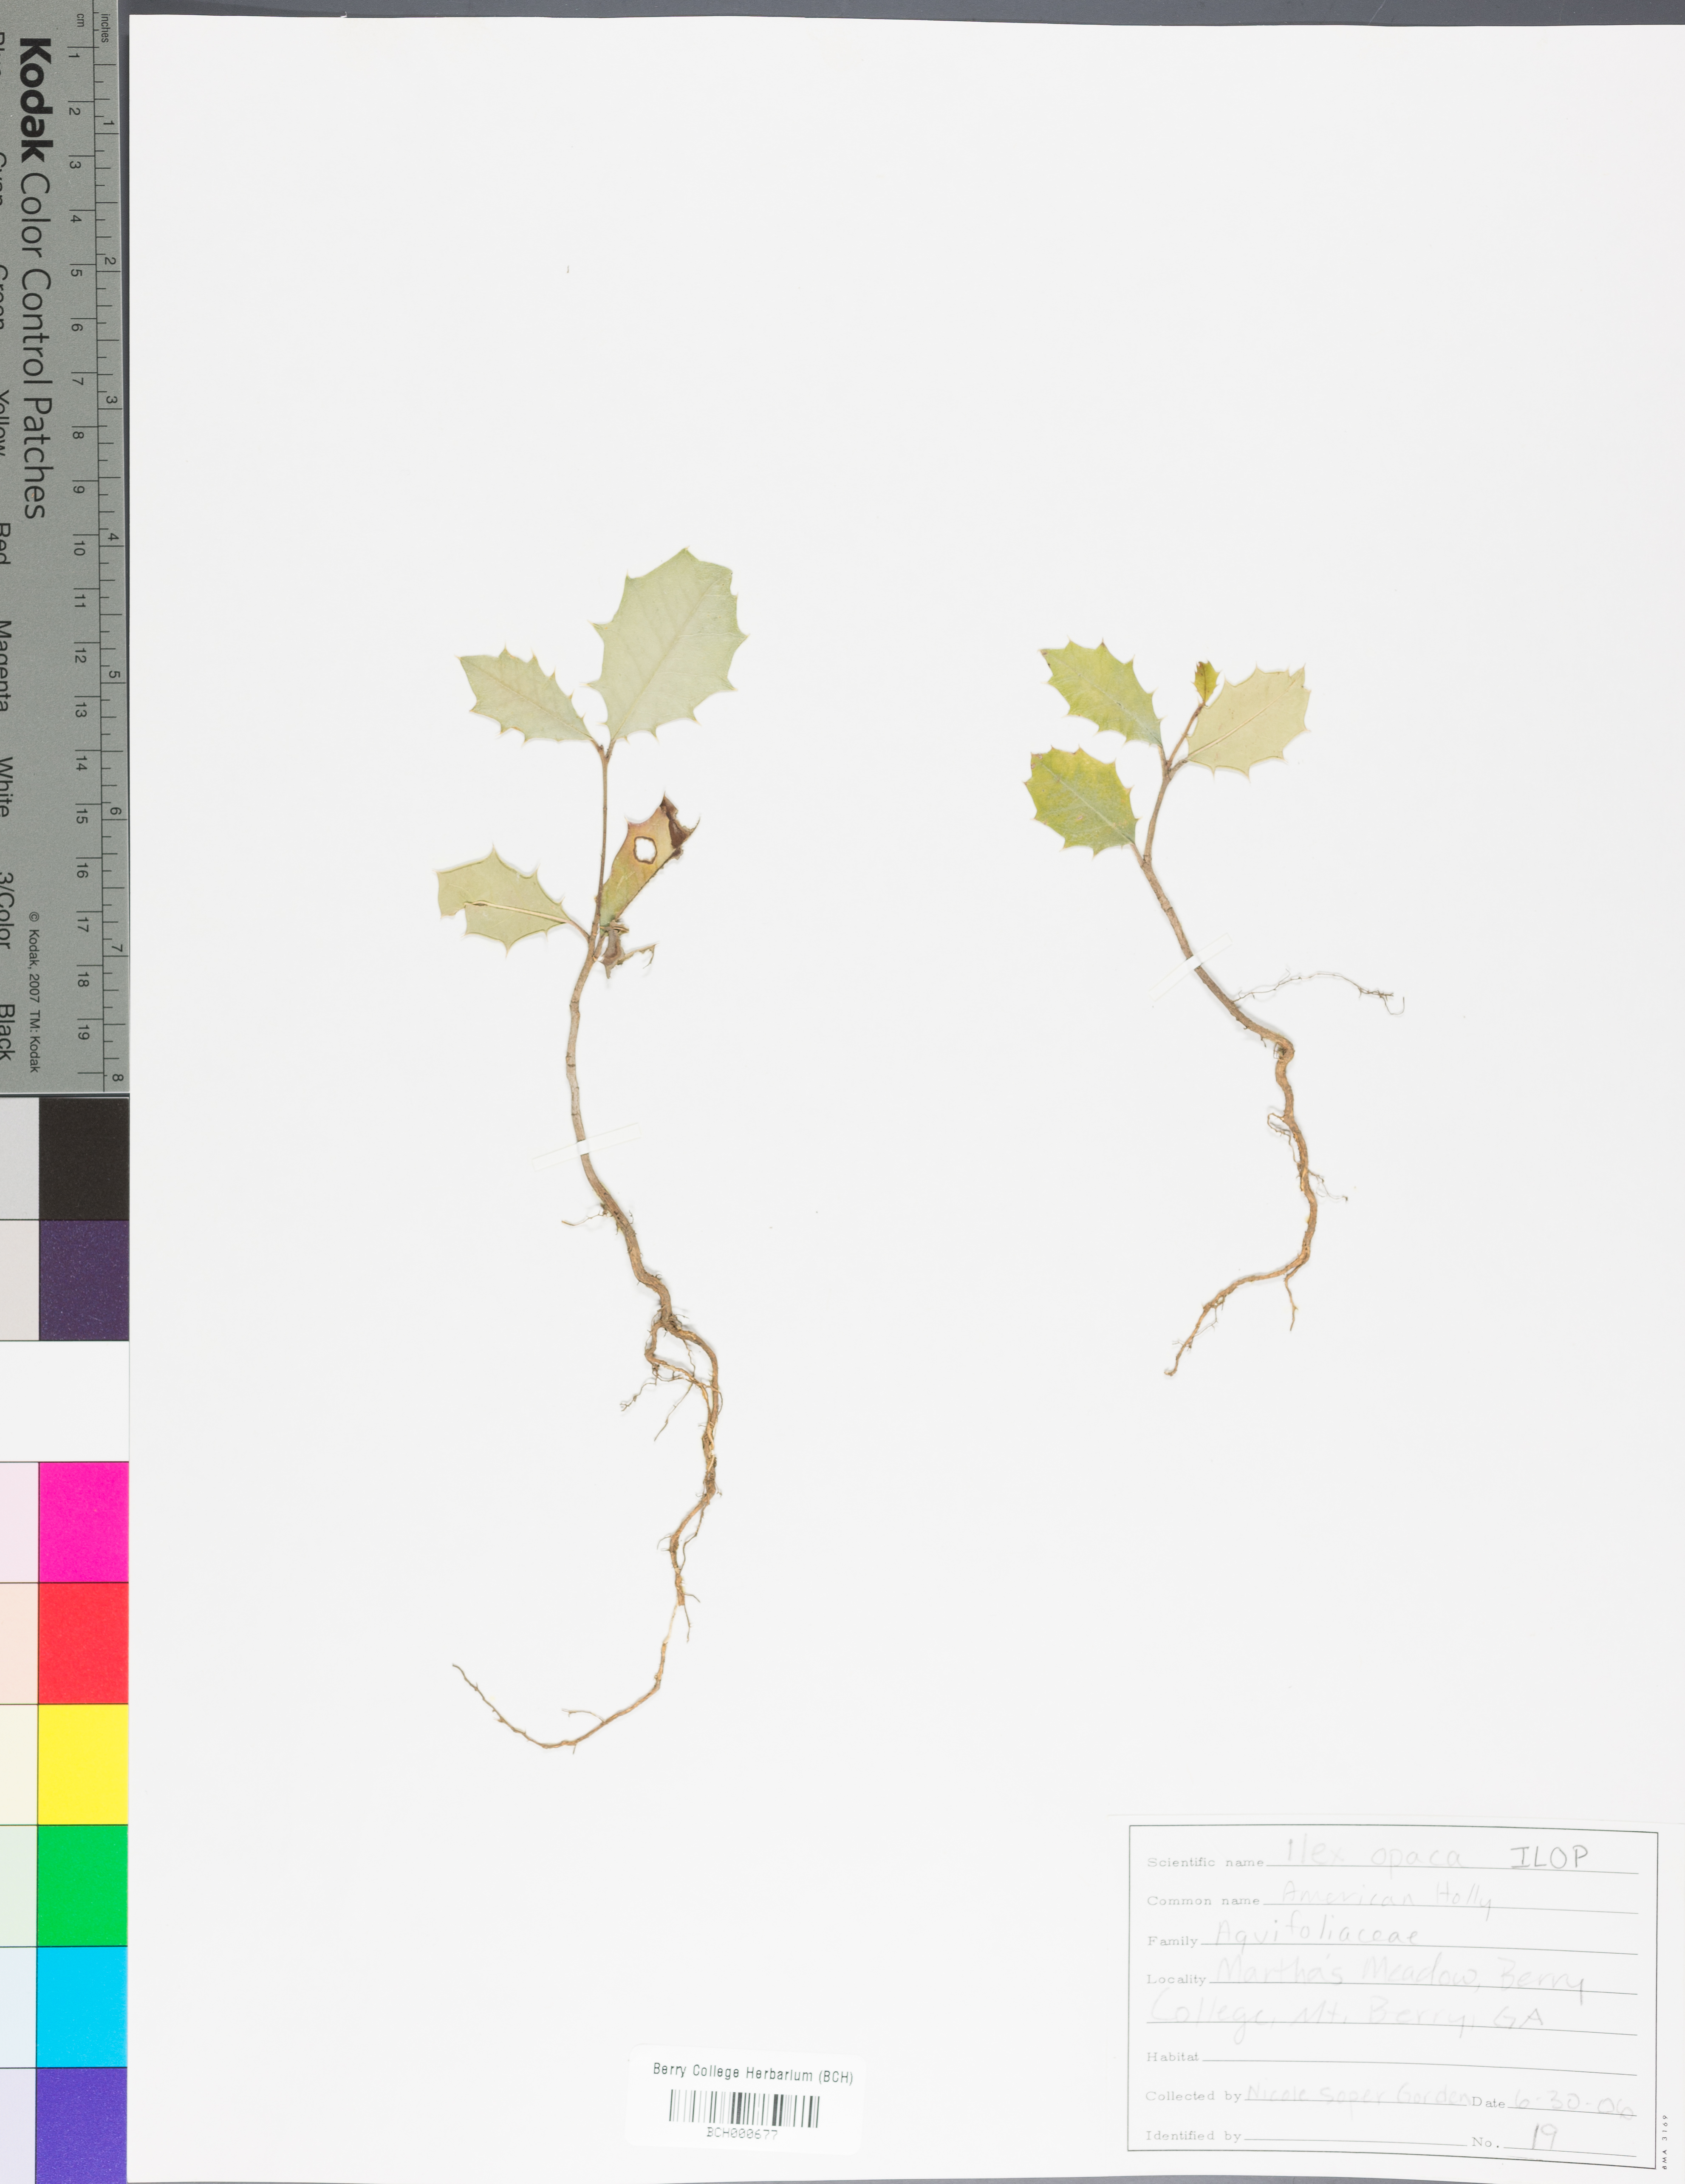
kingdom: Plantae
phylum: Tracheophyta
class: Magnoliopsida
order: Aquifoliales
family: Aquifoliaceae
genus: Ilex
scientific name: Ilex opaca
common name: American holly
